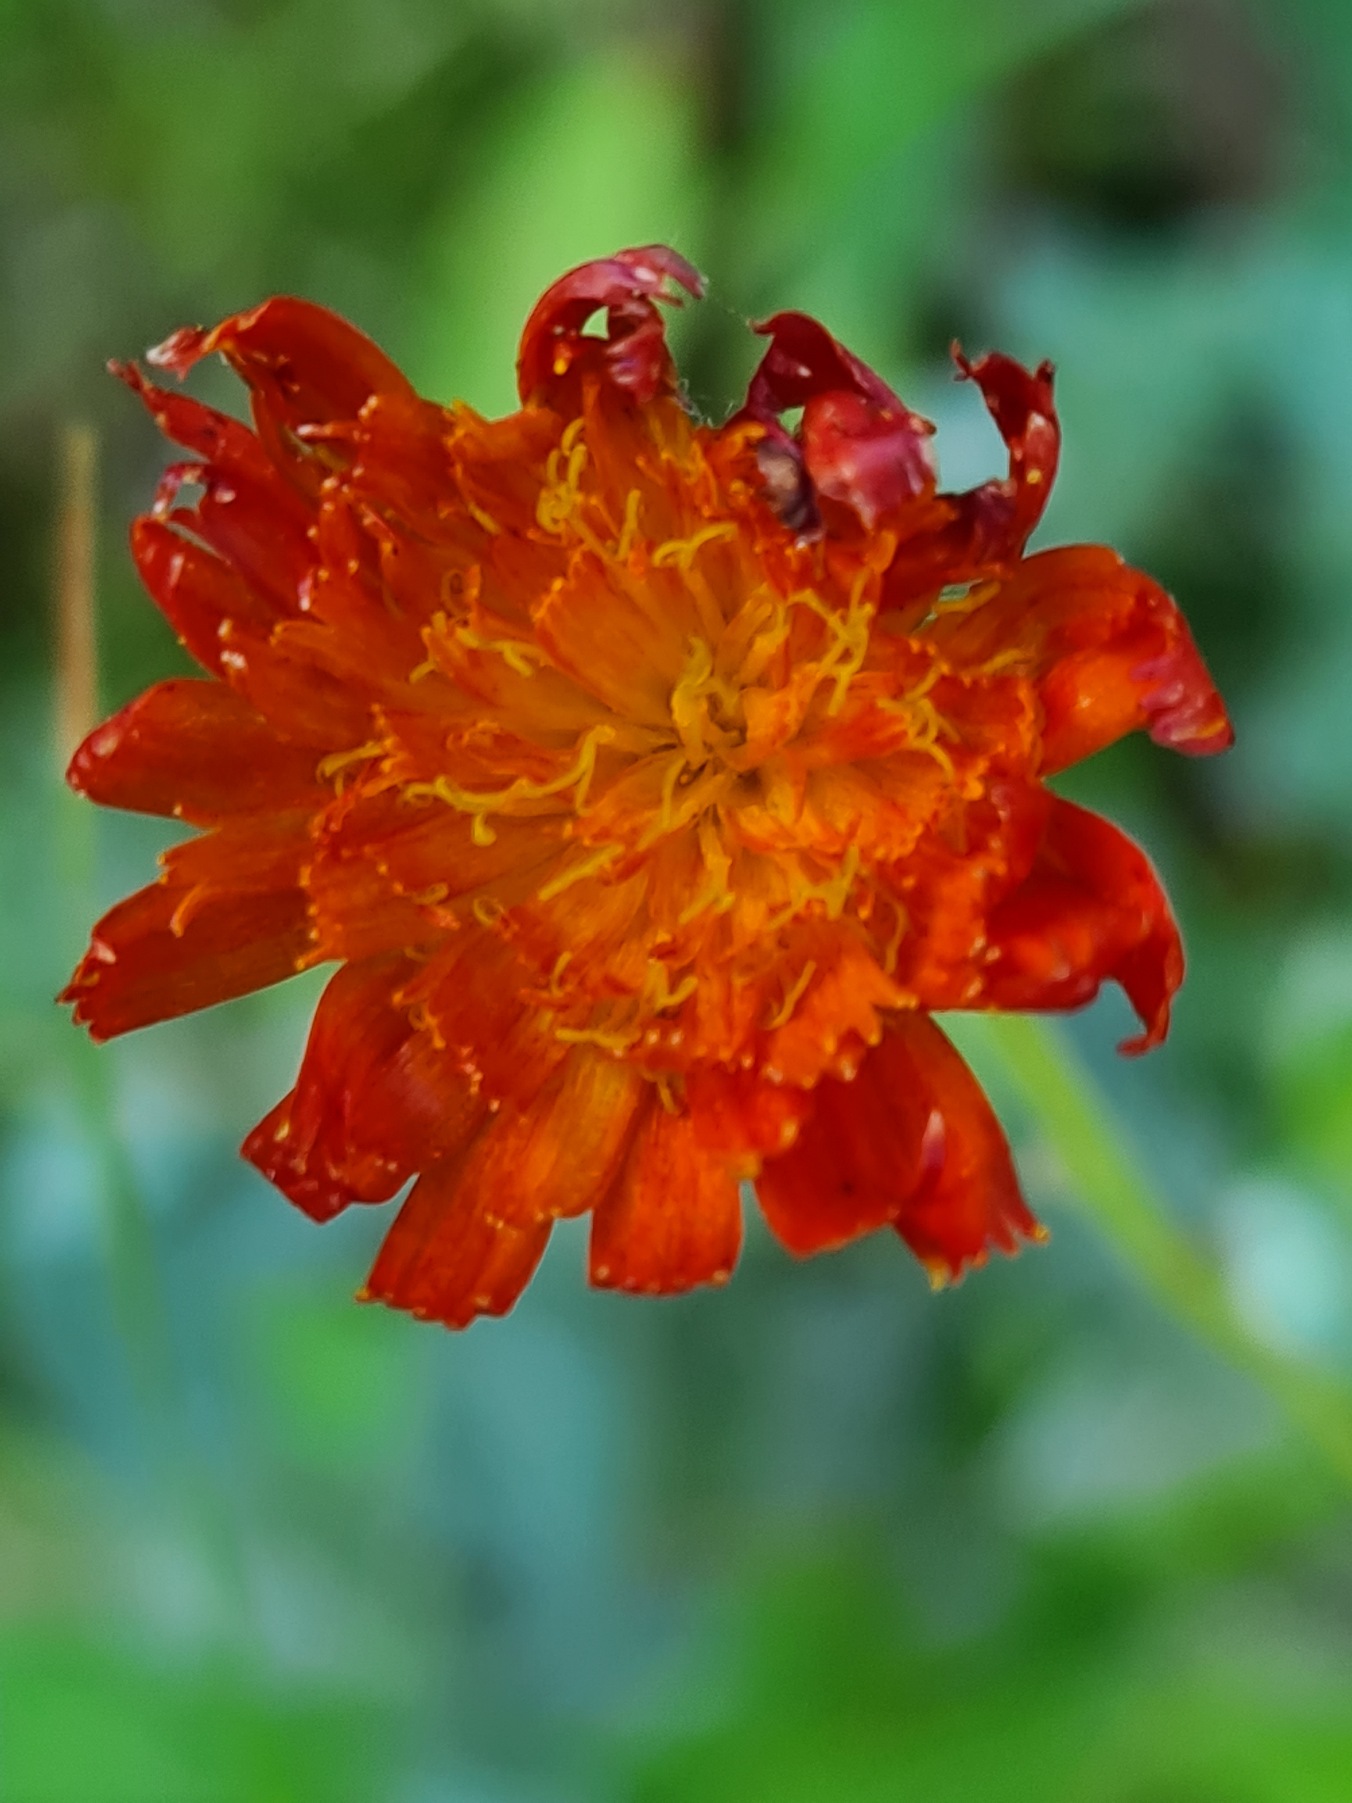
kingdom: Plantae
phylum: Tracheophyta
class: Magnoliopsida
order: Asterales
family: Asteraceae
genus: Pilosella
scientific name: Pilosella aurantiaca
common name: Pomerans-høgeurt
